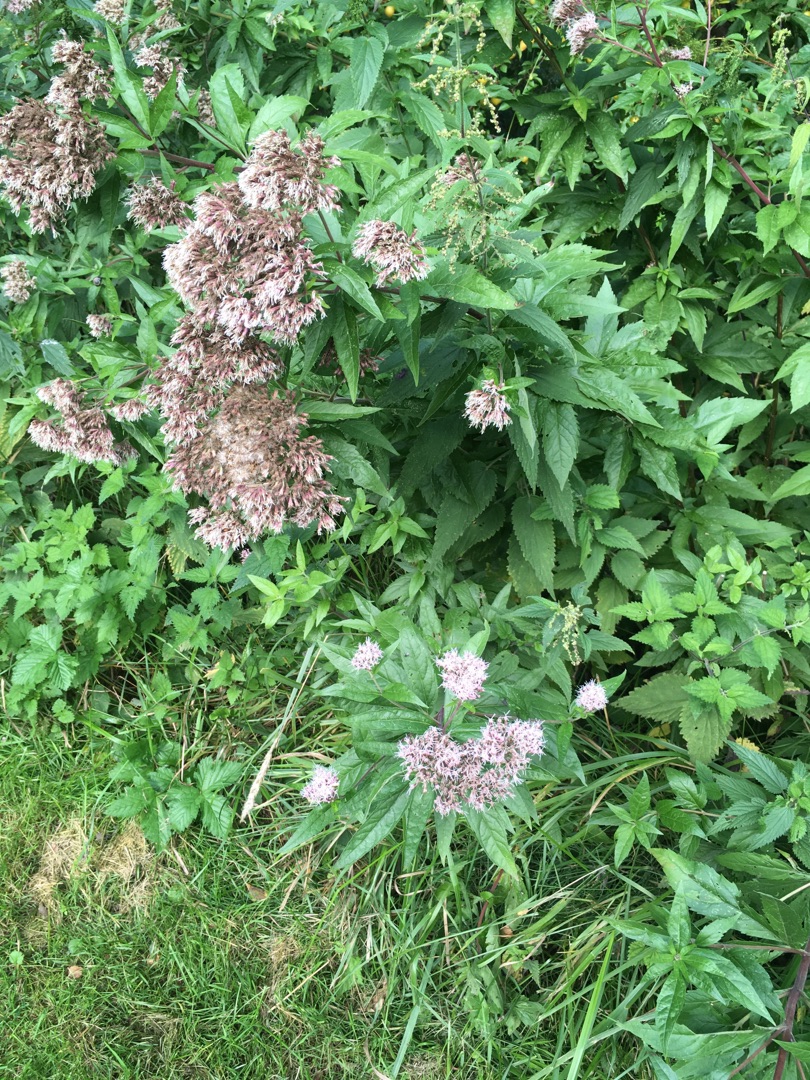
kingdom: Plantae
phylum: Tracheophyta
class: Magnoliopsida
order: Asterales
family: Asteraceae
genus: Eupatorium
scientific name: Eupatorium cannabinum
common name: Hjortetrøst
